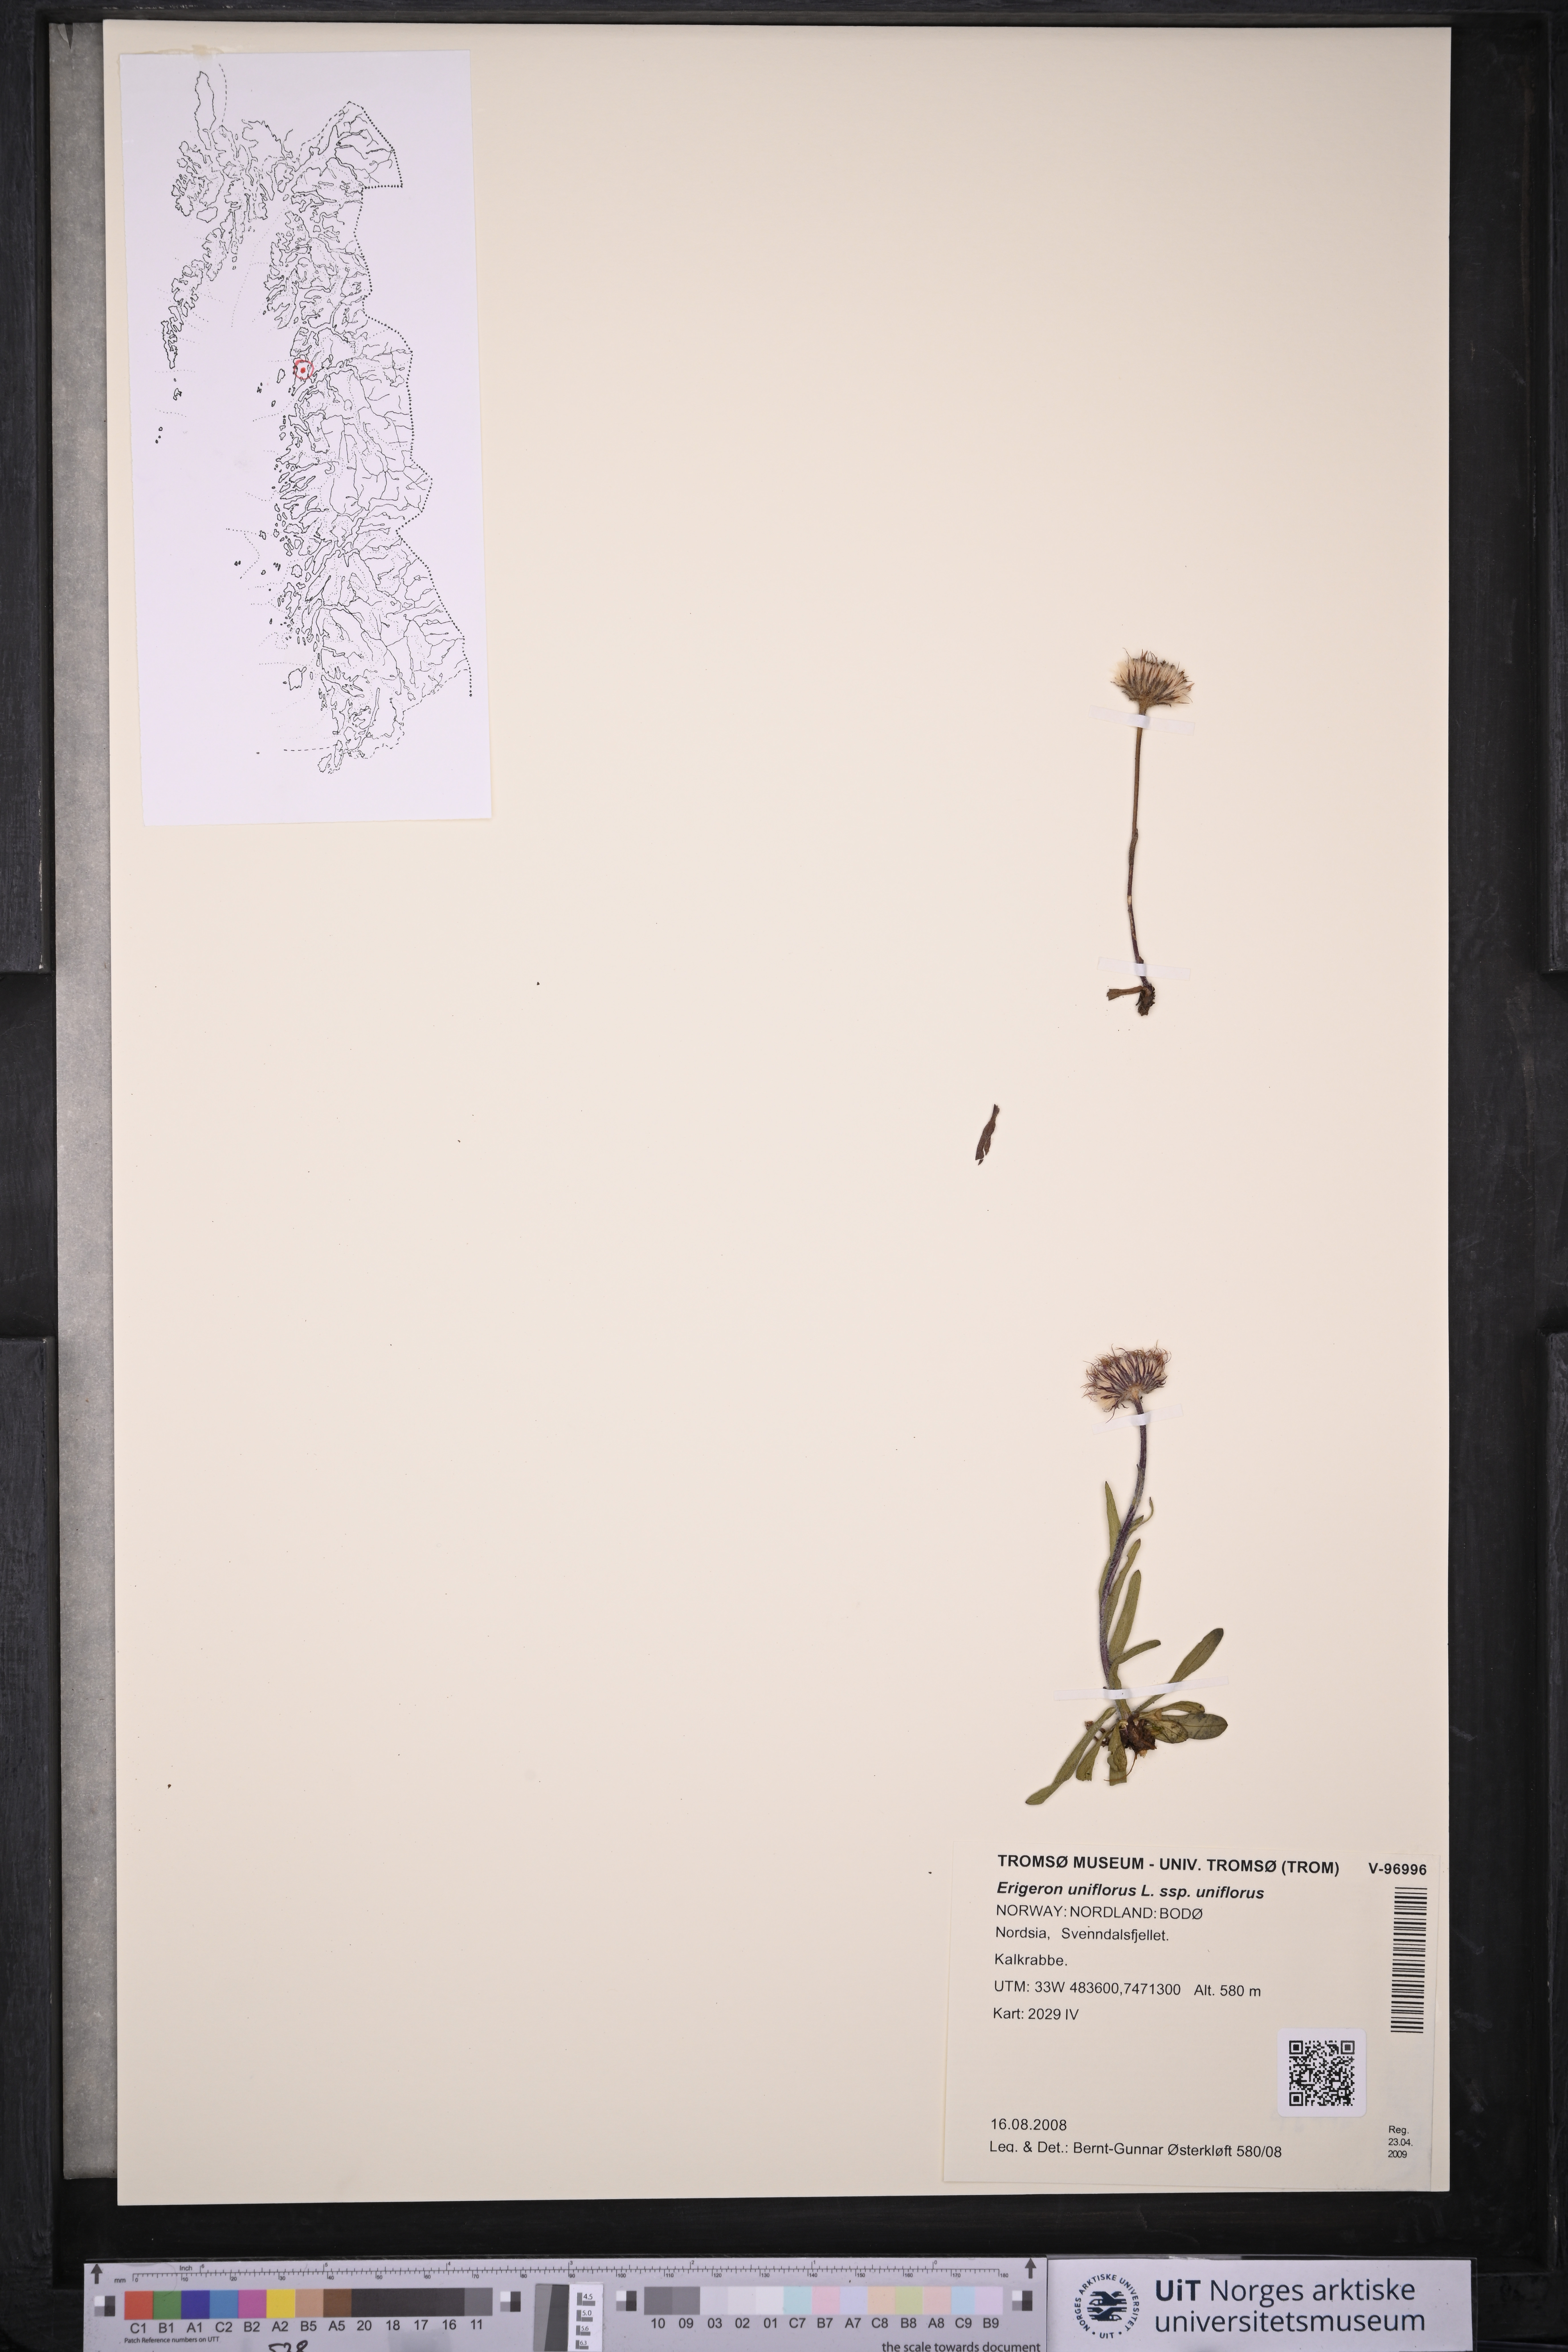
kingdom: Plantae
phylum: Tracheophyta
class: Magnoliopsida
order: Asterales
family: Asteraceae
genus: Erigeron
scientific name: Erigeron uniflorus
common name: Northern daisy
